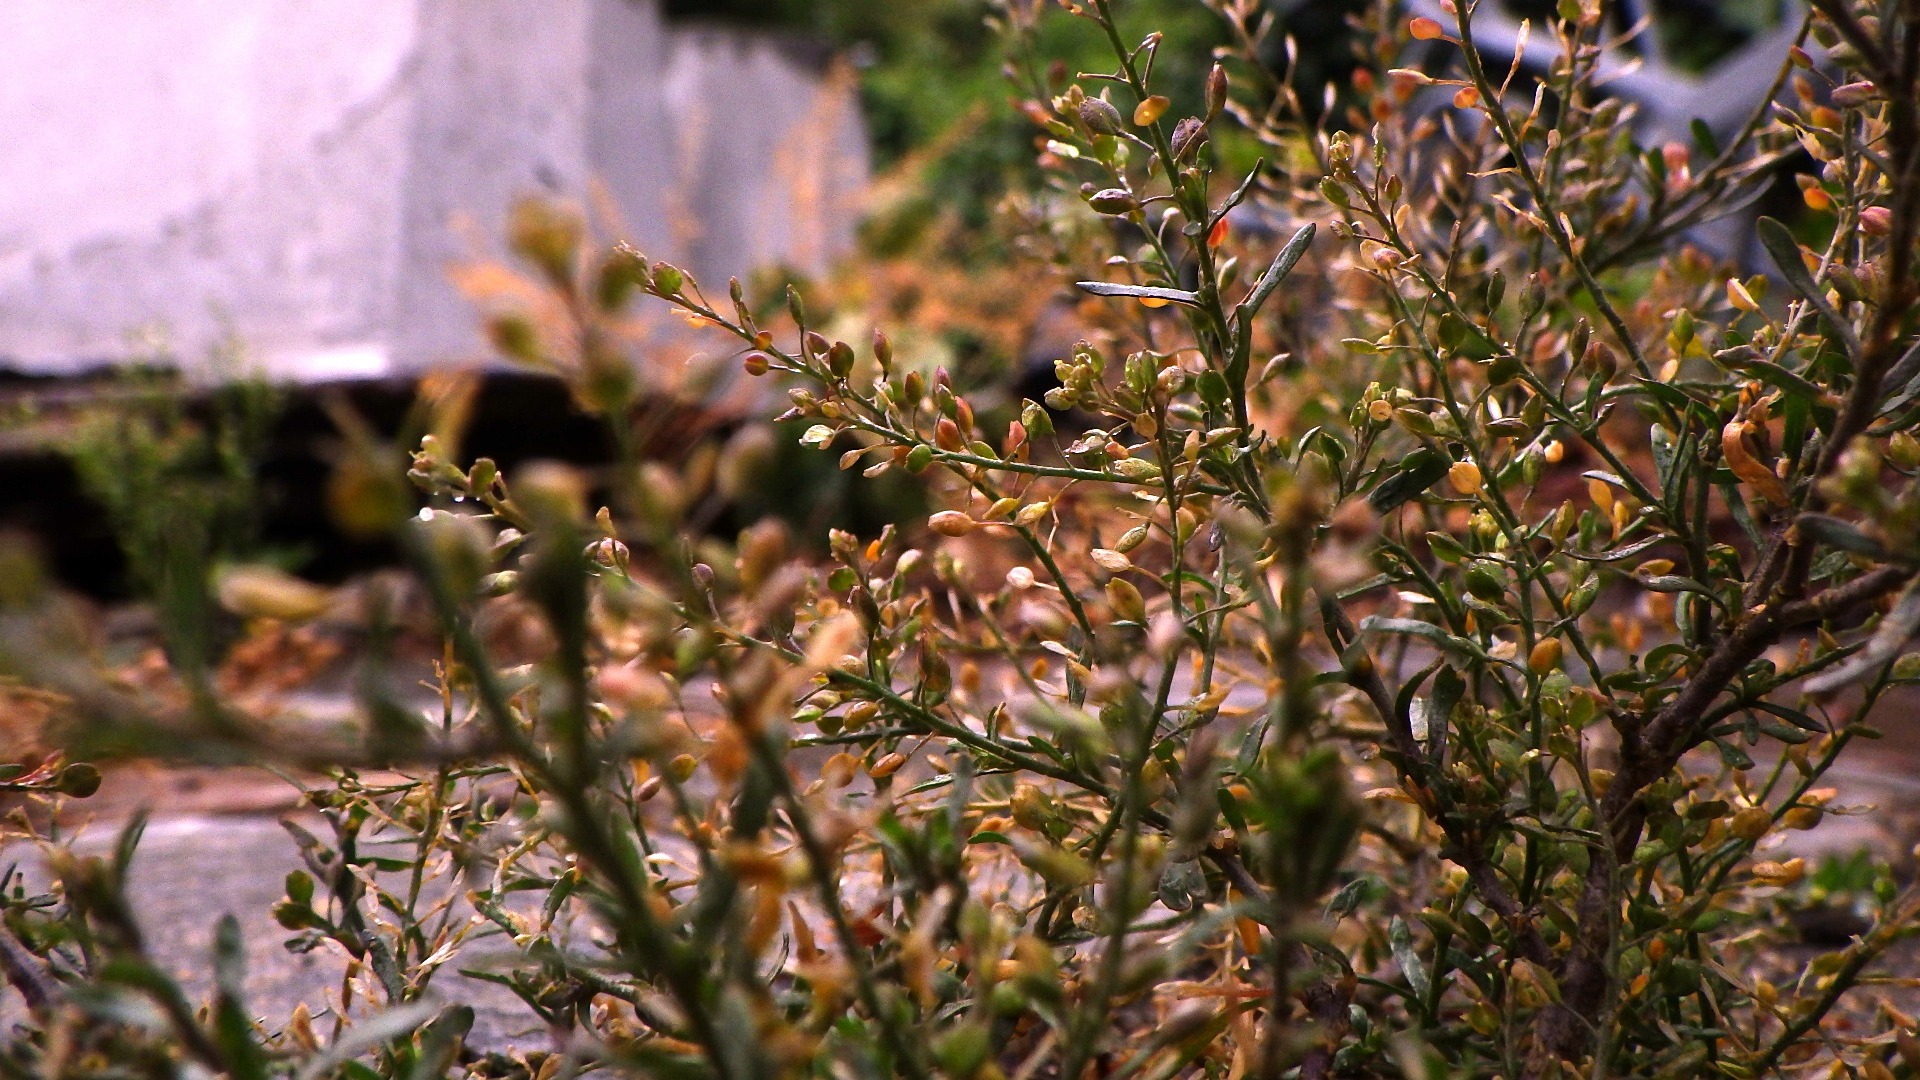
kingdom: Plantae
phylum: Tracheophyta
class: Magnoliopsida
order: Brassicales
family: Brassicaceae
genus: Lepidium
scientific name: Lepidium ruderale
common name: Stinkende karse
